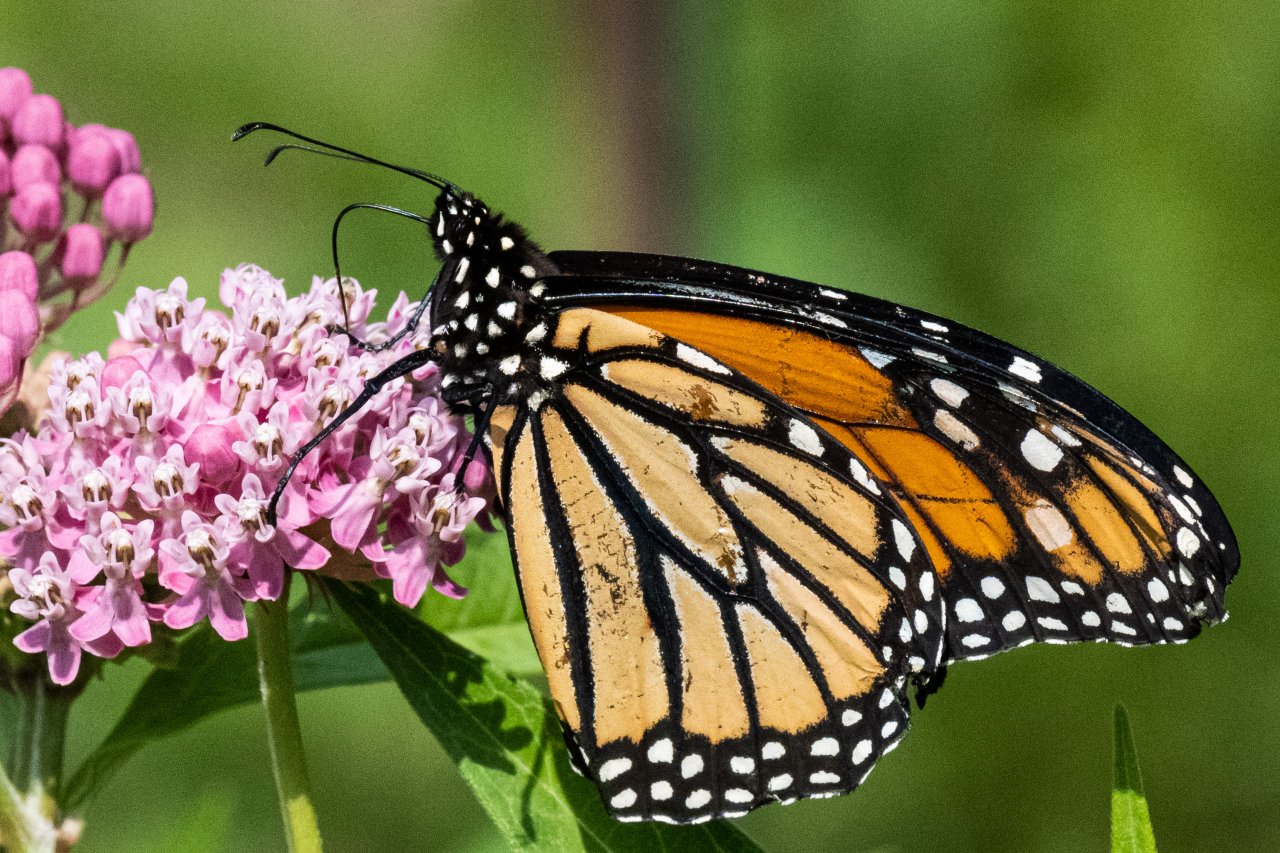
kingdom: Animalia
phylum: Arthropoda
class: Insecta
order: Lepidoptera
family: Nymphalidae
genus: Danaus
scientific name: Danaus plexippus
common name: Monarch
